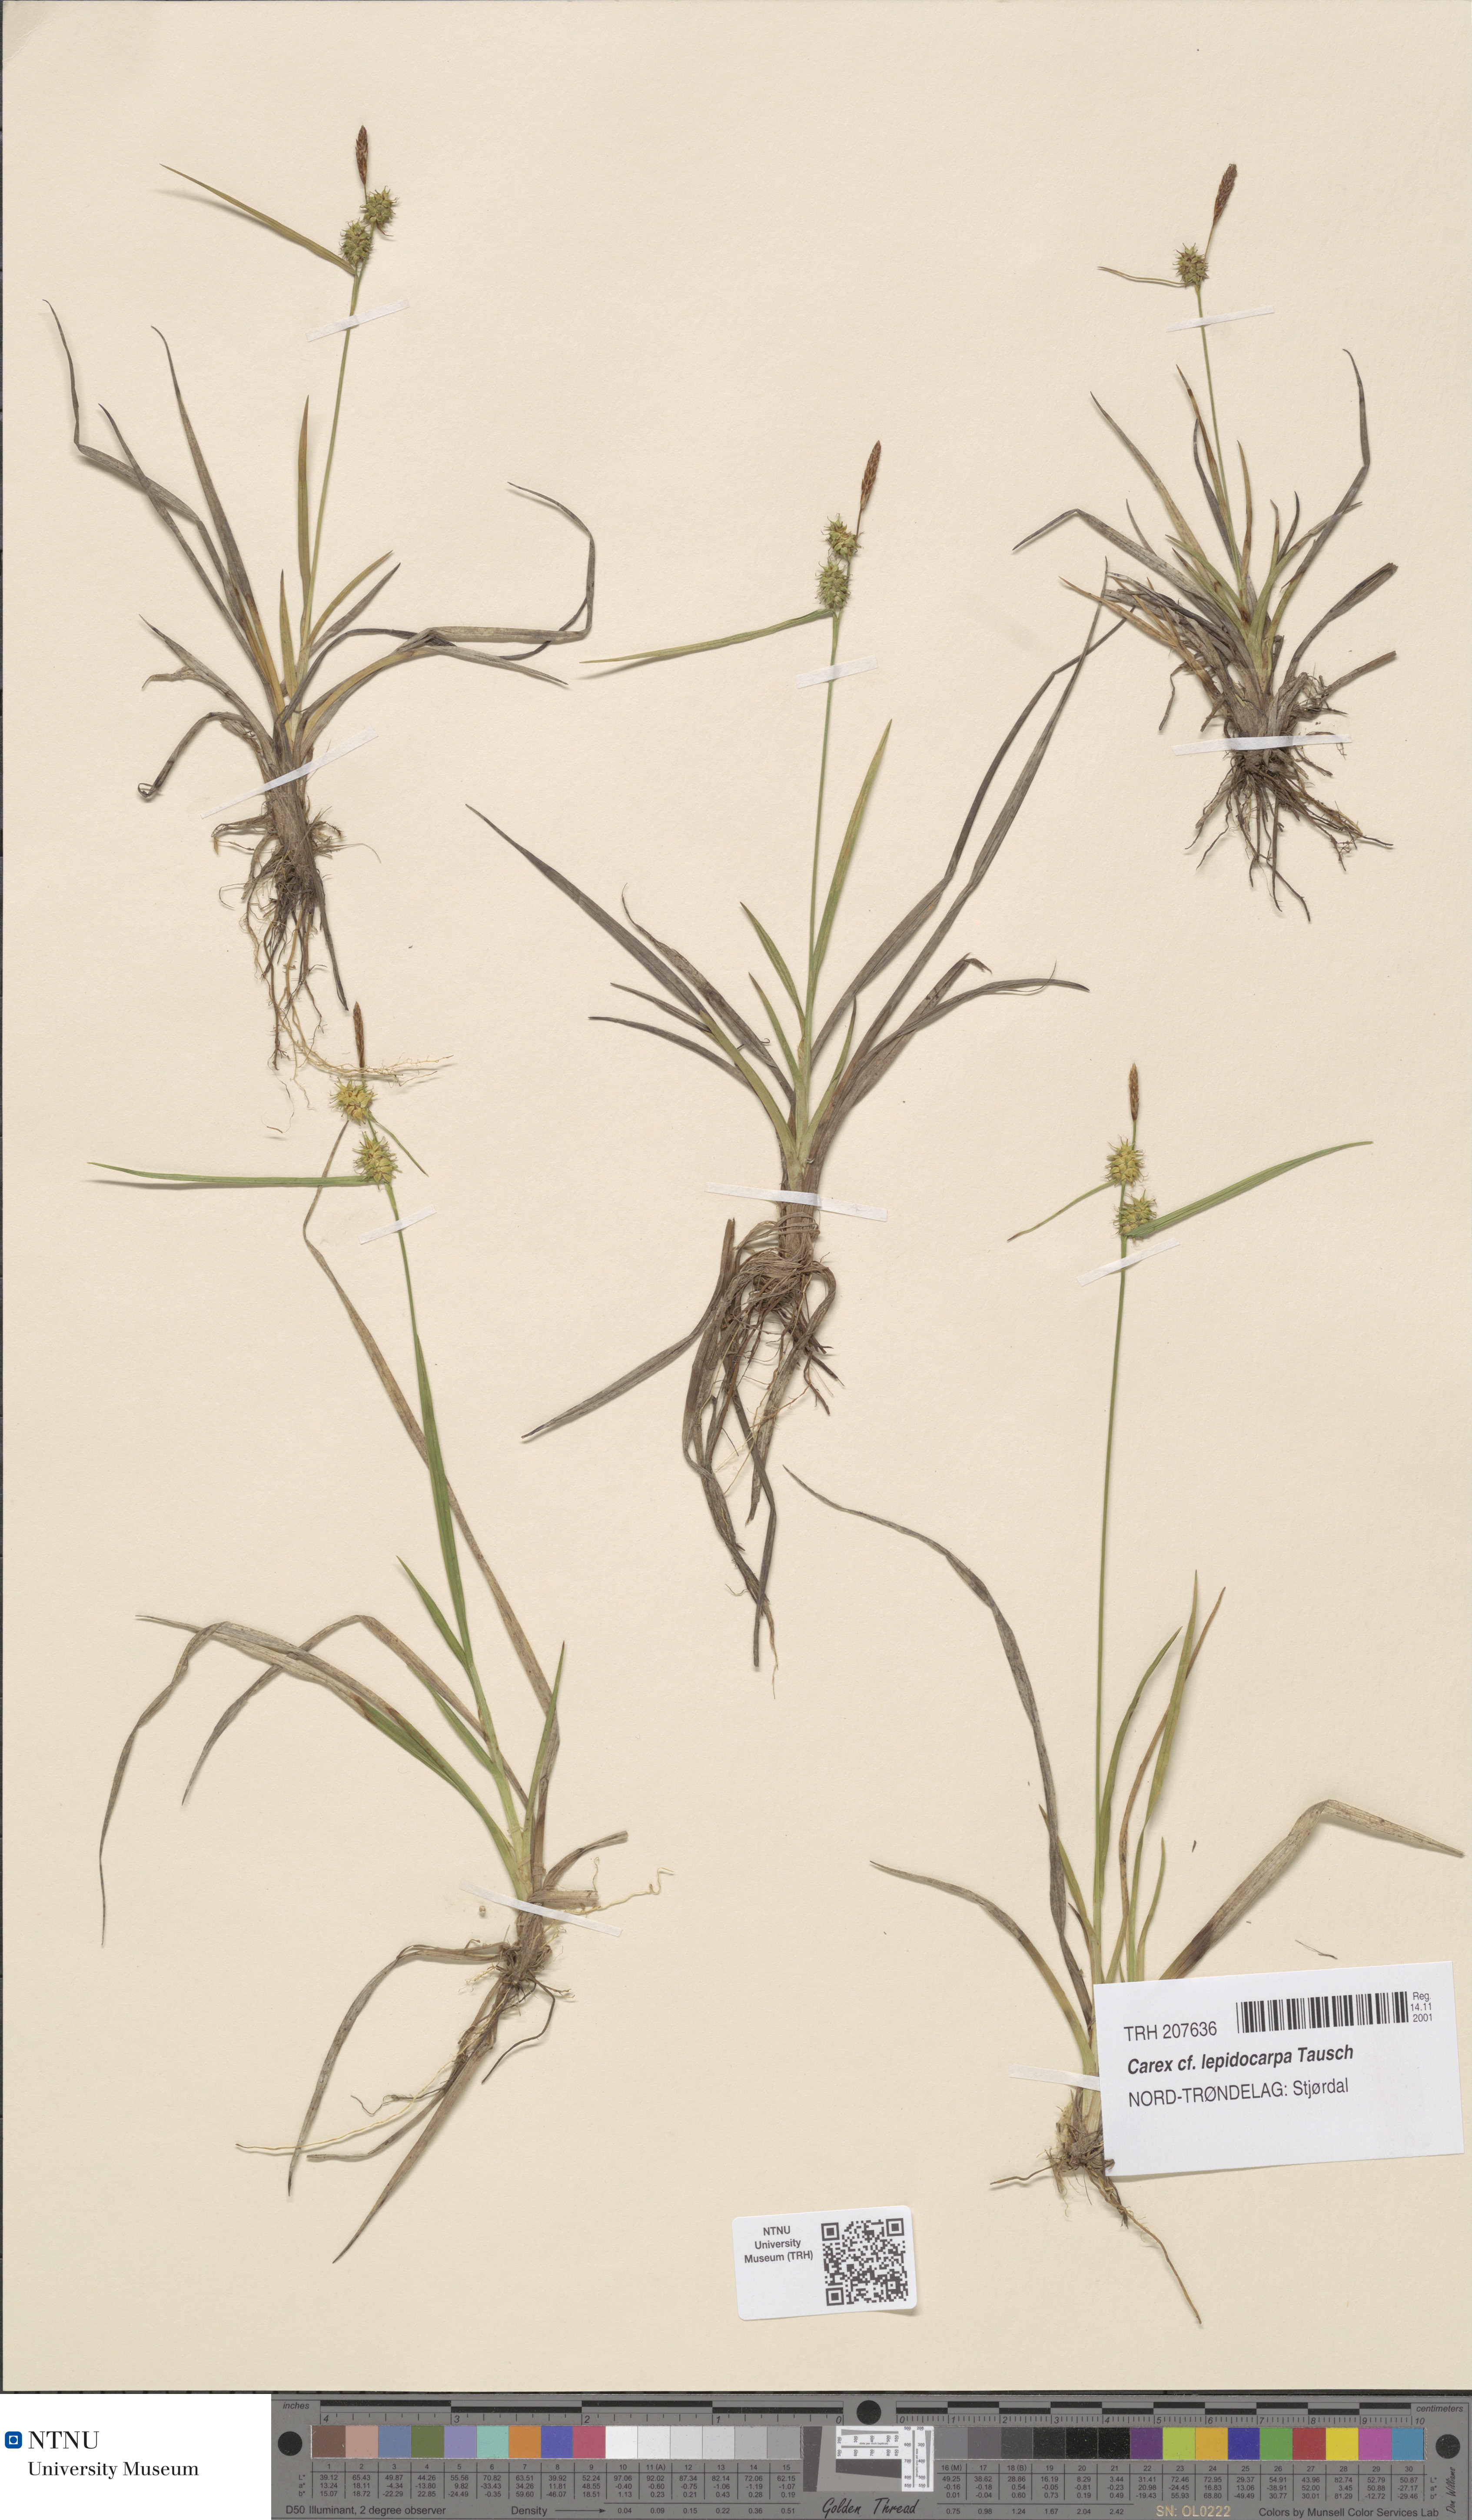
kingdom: Plantae
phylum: Tracheophyta
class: Liliopsida
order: Poales
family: Cyperaceae
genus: Carex
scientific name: Carex lepidocarpa
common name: Long-stalked yellow-sedge
